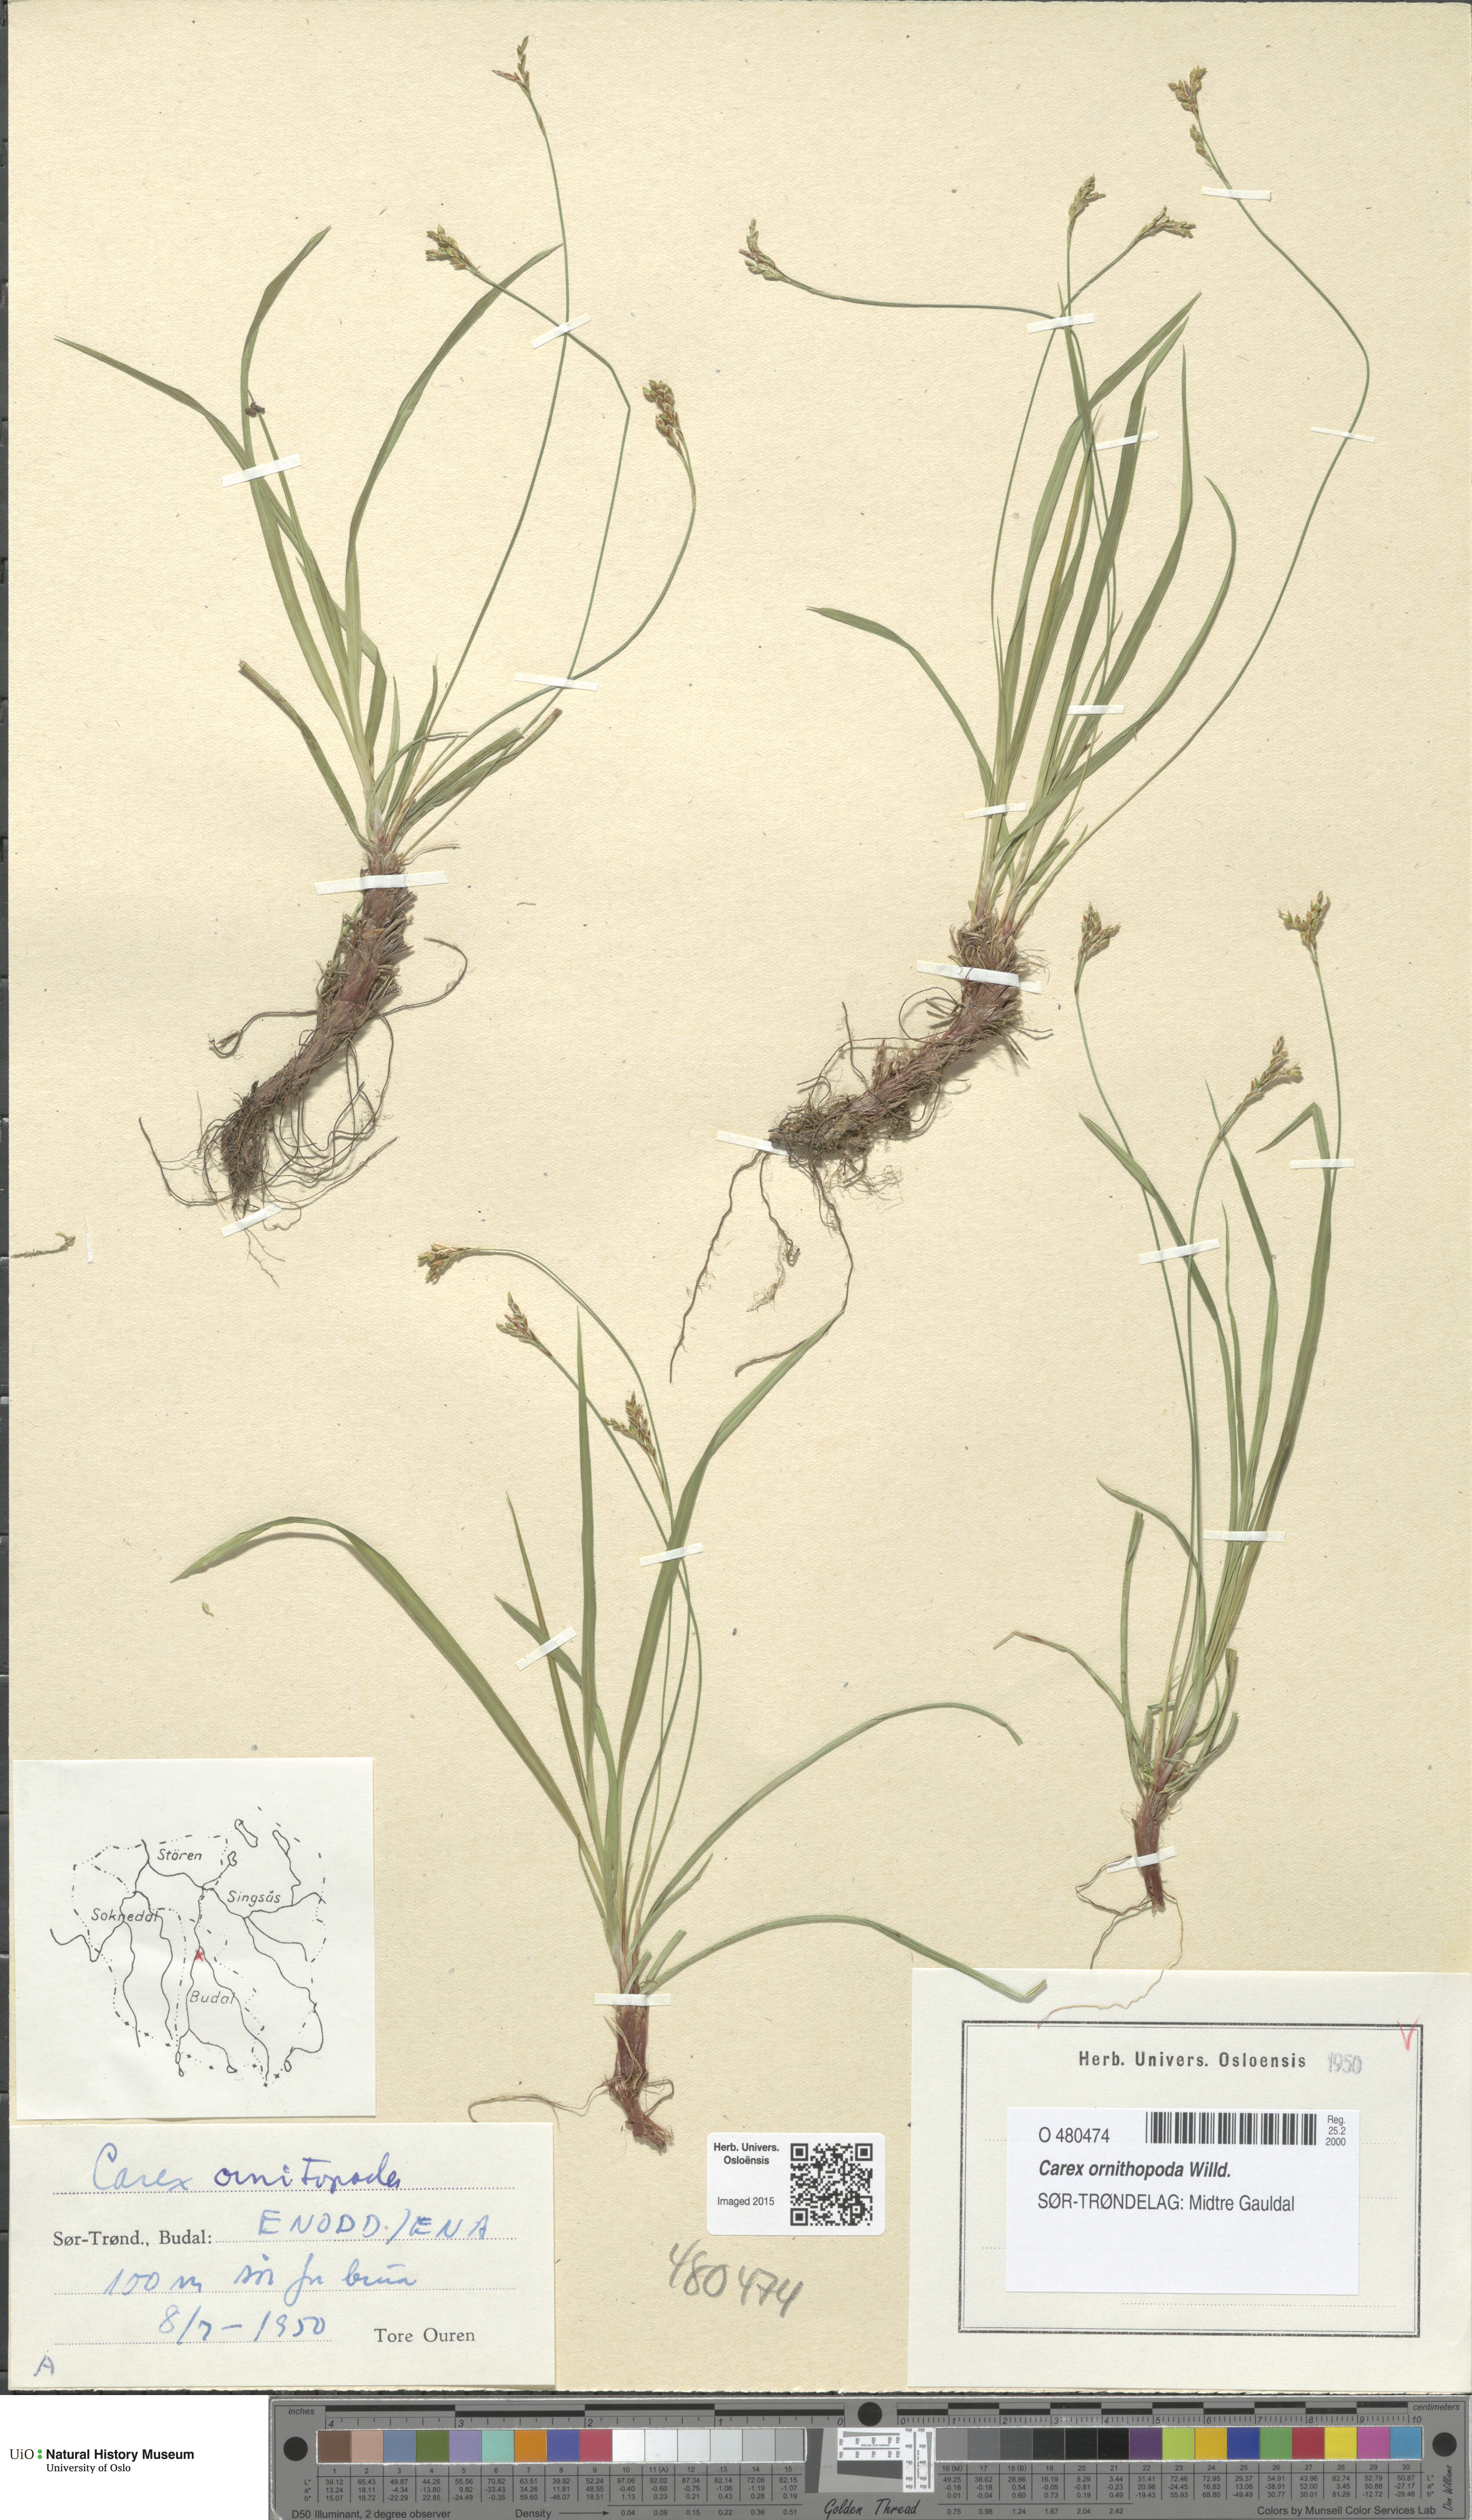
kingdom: Plantae
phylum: Tracheophyta
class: Liliopsida
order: Poales
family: Cyperaceae
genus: Carex
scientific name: Carex ornithopoda
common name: Bird's-foot sedge
